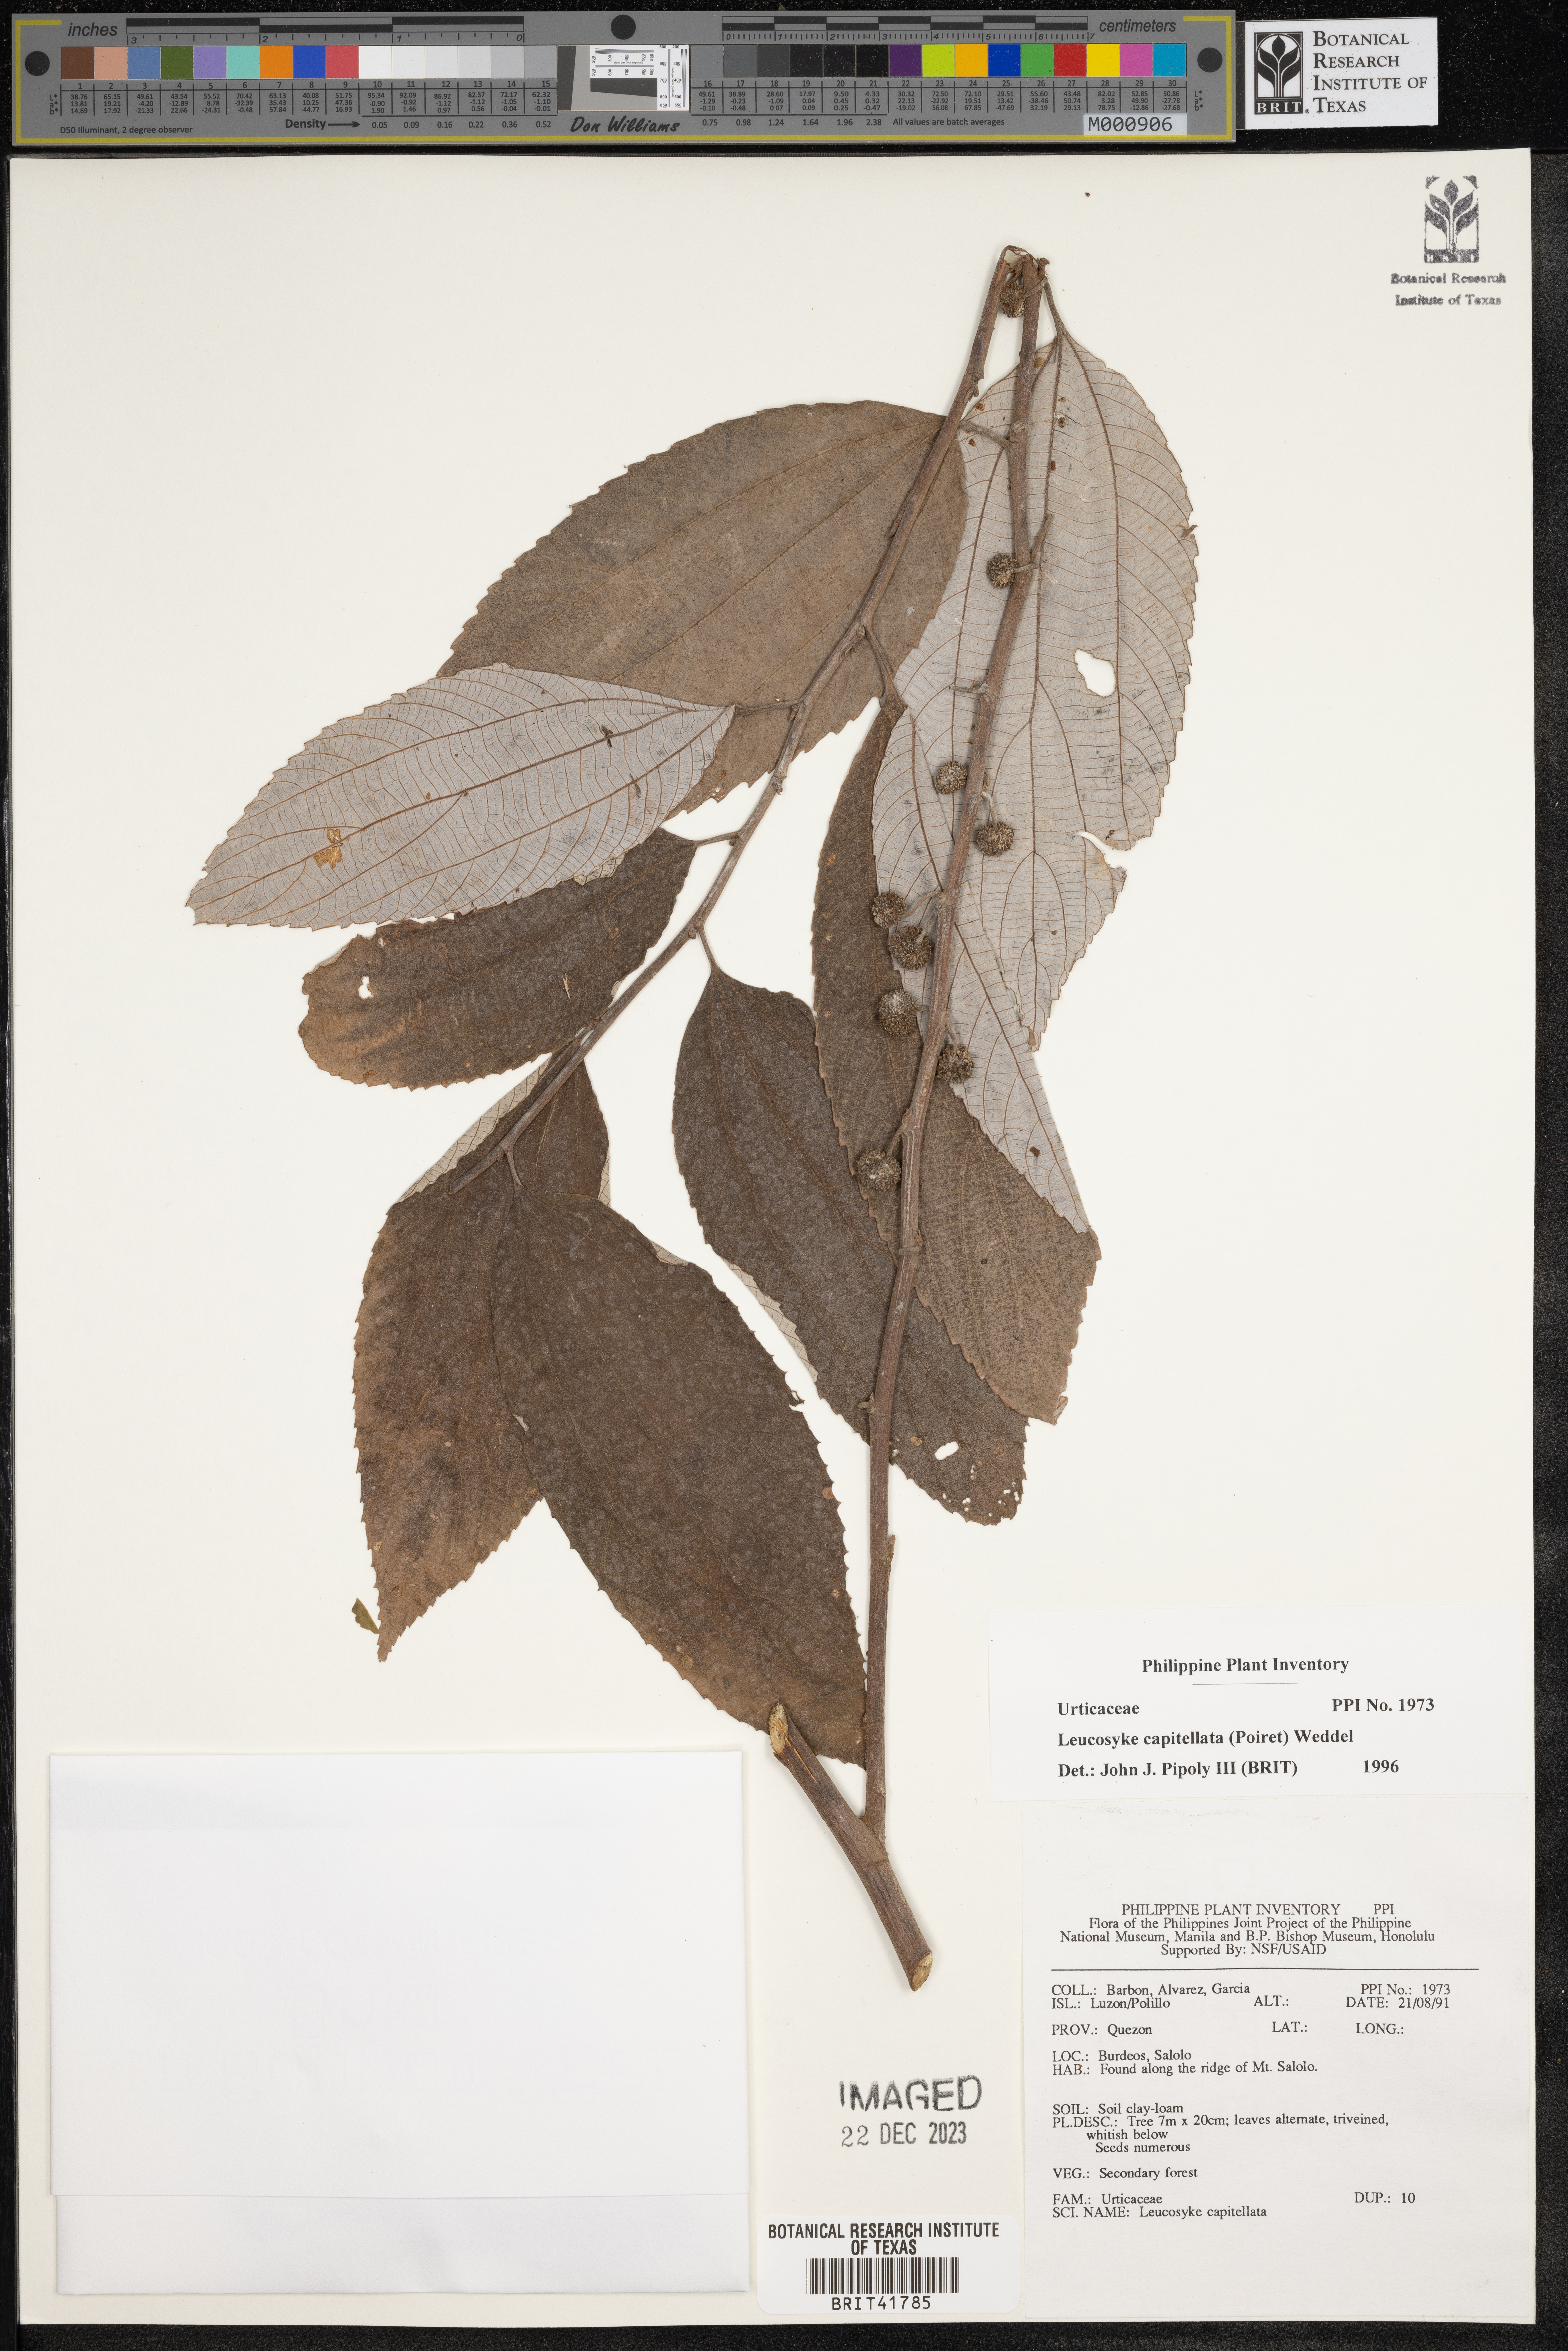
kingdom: Plantae
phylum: Tracheophyta
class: Magnoliopsida
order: Rosales
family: Urticaceae
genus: Leucosyke
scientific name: Leucosyke capitellata
